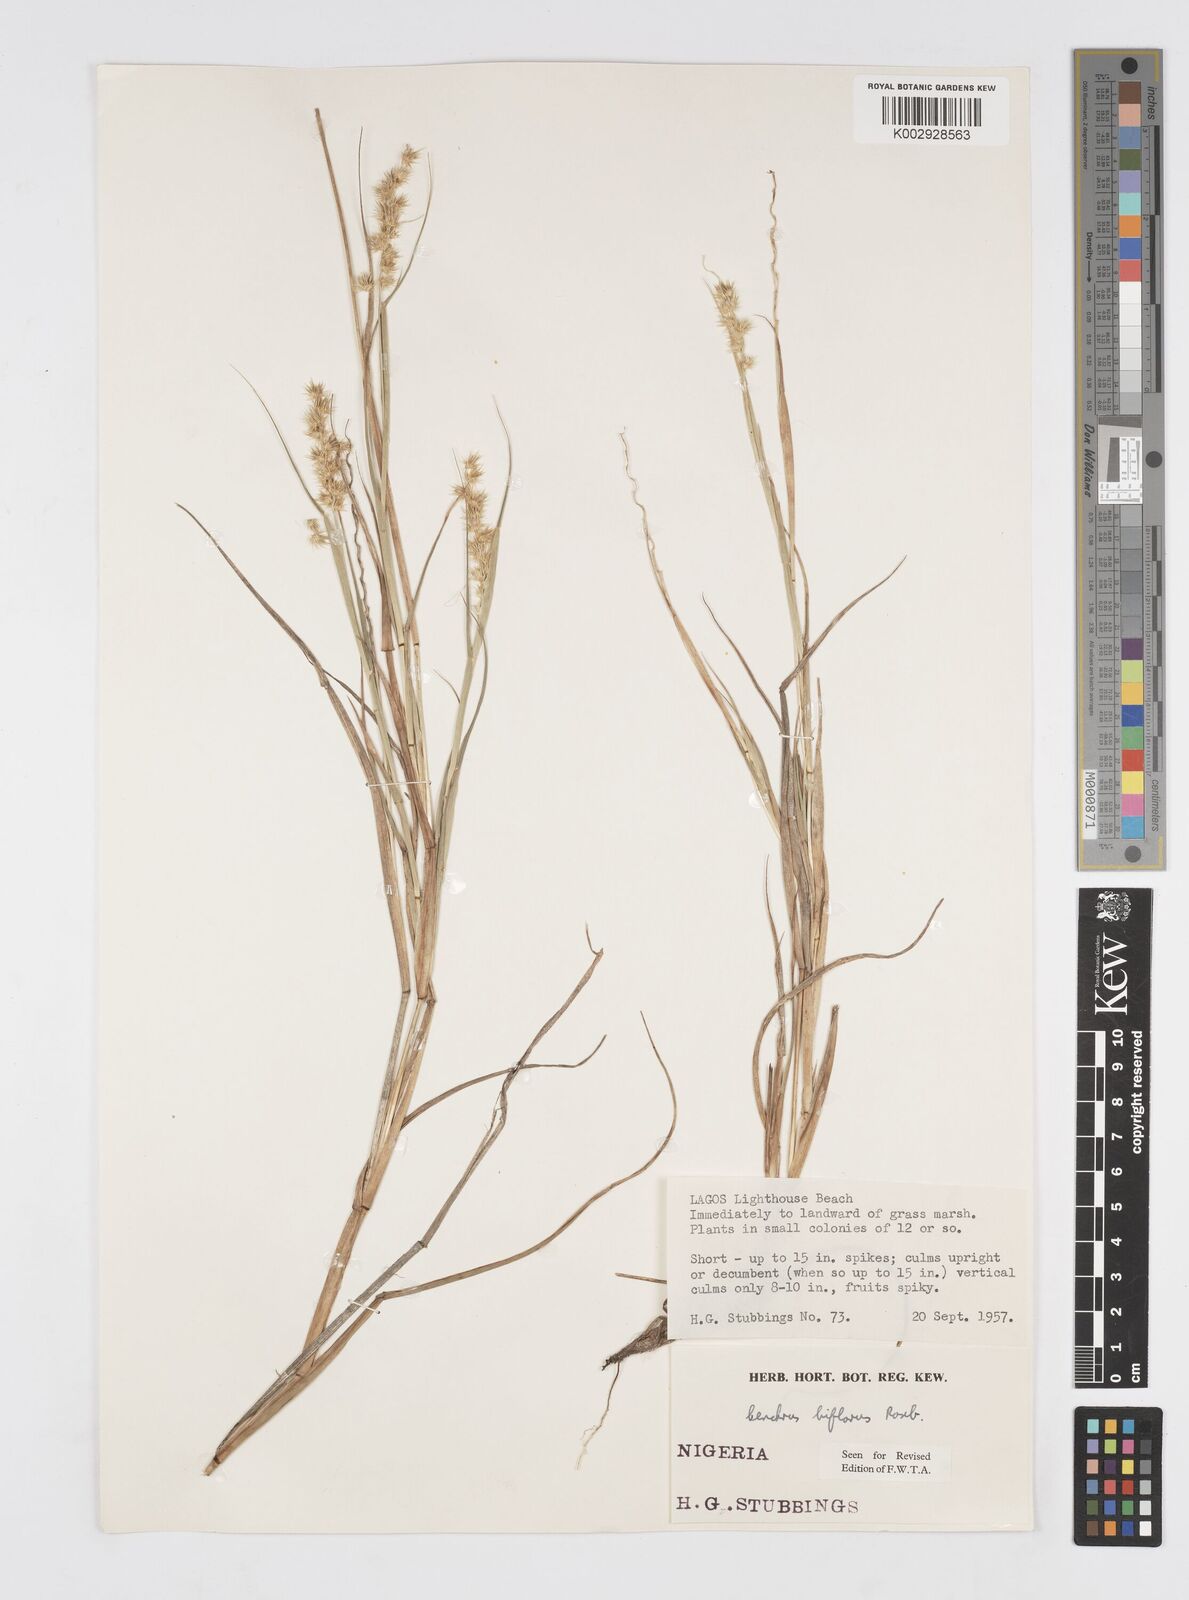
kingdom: Plantae
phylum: Tracheophyta
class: Liliopsida
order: Poales
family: Poaceae
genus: Cenchrus
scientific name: Cenchrus biflorus
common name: Indian sandbur
